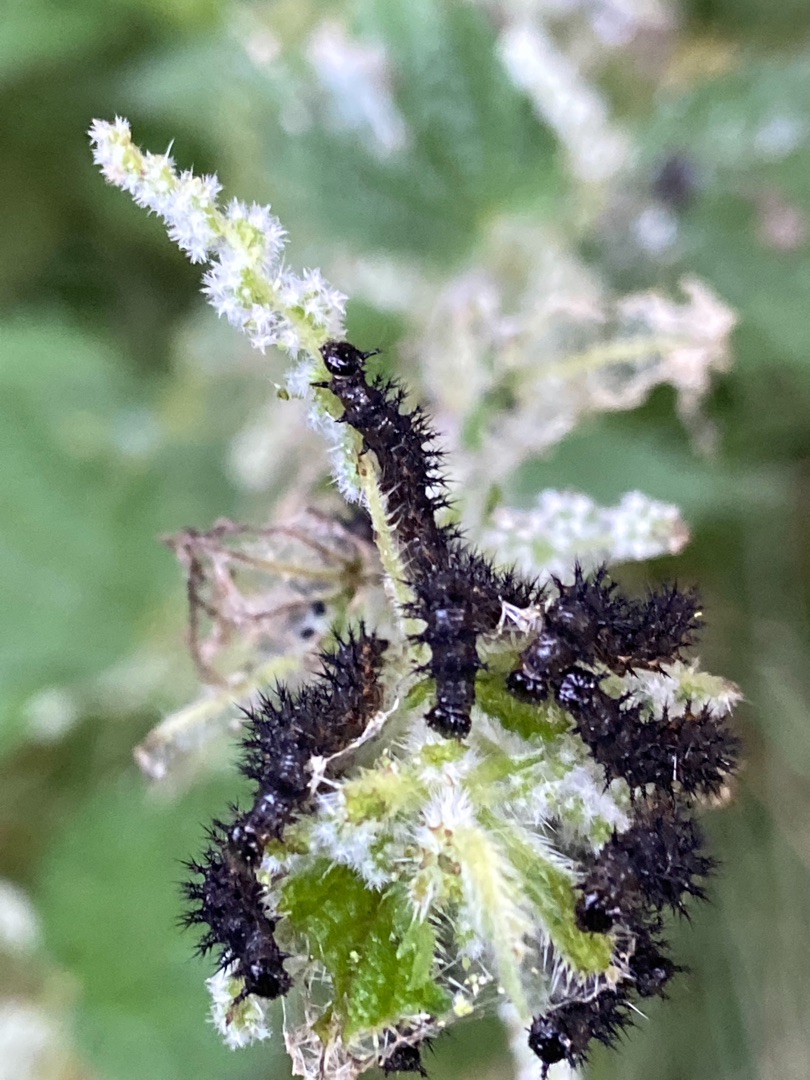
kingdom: Animalia
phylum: Arthropoda
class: Insecta
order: Lepidoptera
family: Nymphalidae
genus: Aglais
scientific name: Aglais io
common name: Dagpåfugleøje
